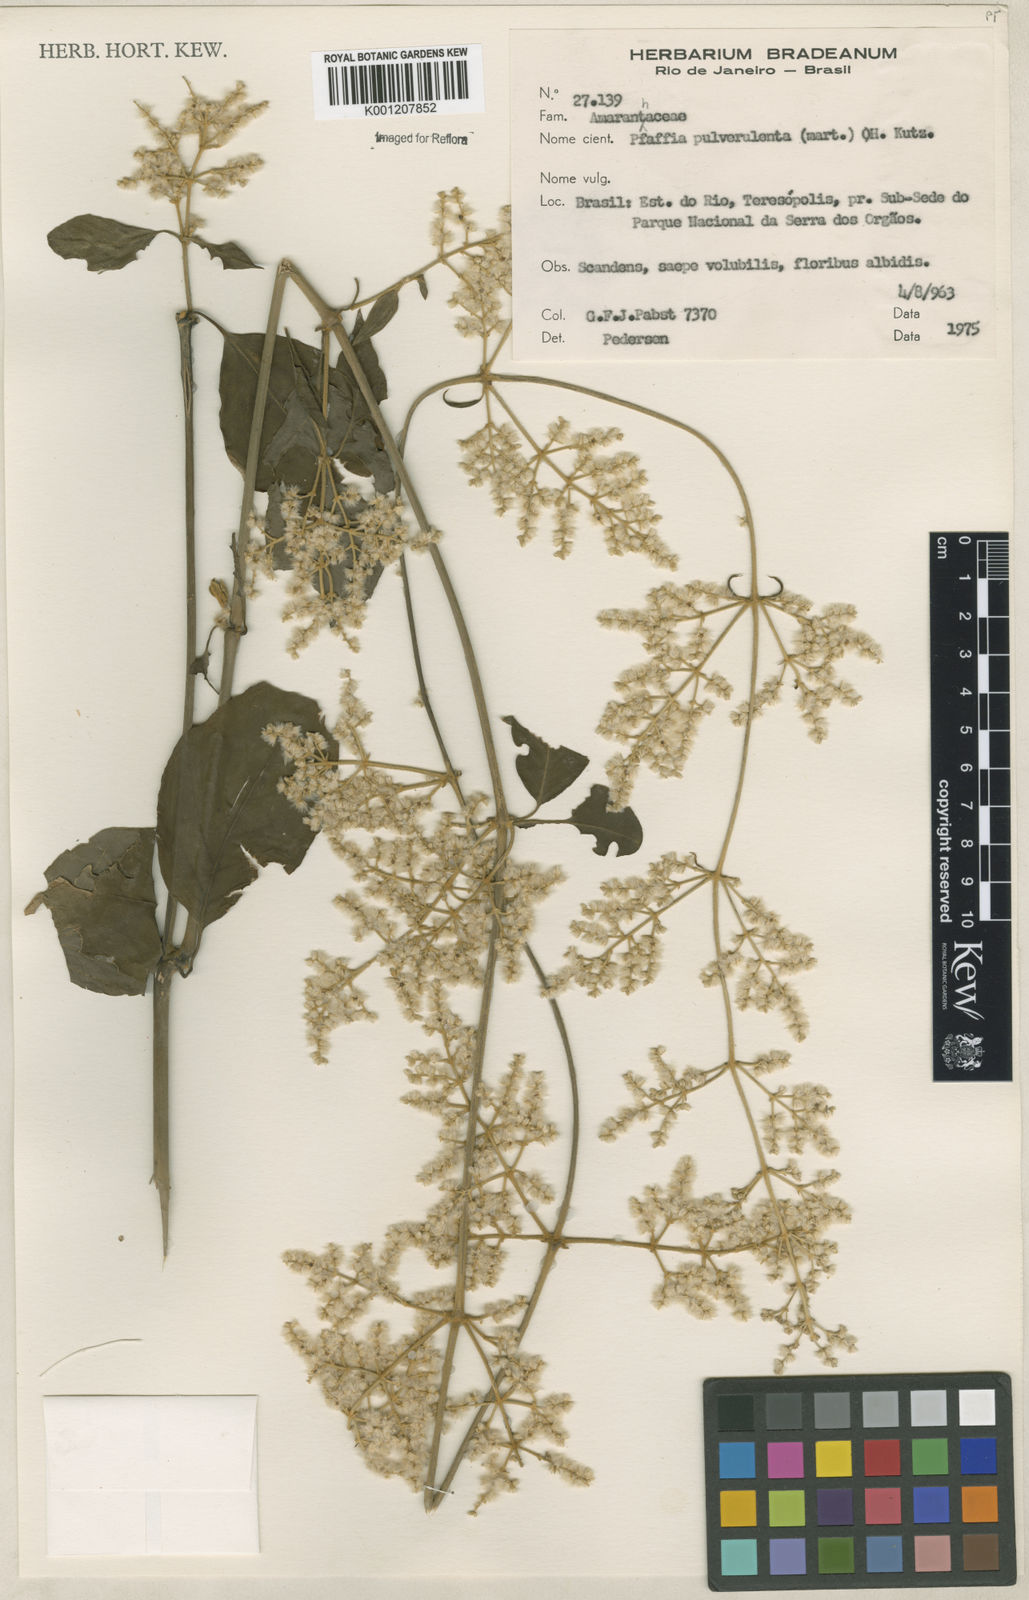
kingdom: Plantae
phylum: Tracheophyta
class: Magnoliopsida
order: Caryophyllales
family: Amaranthaceae
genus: Hebanthe
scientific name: Hebanthe pulverulenta
